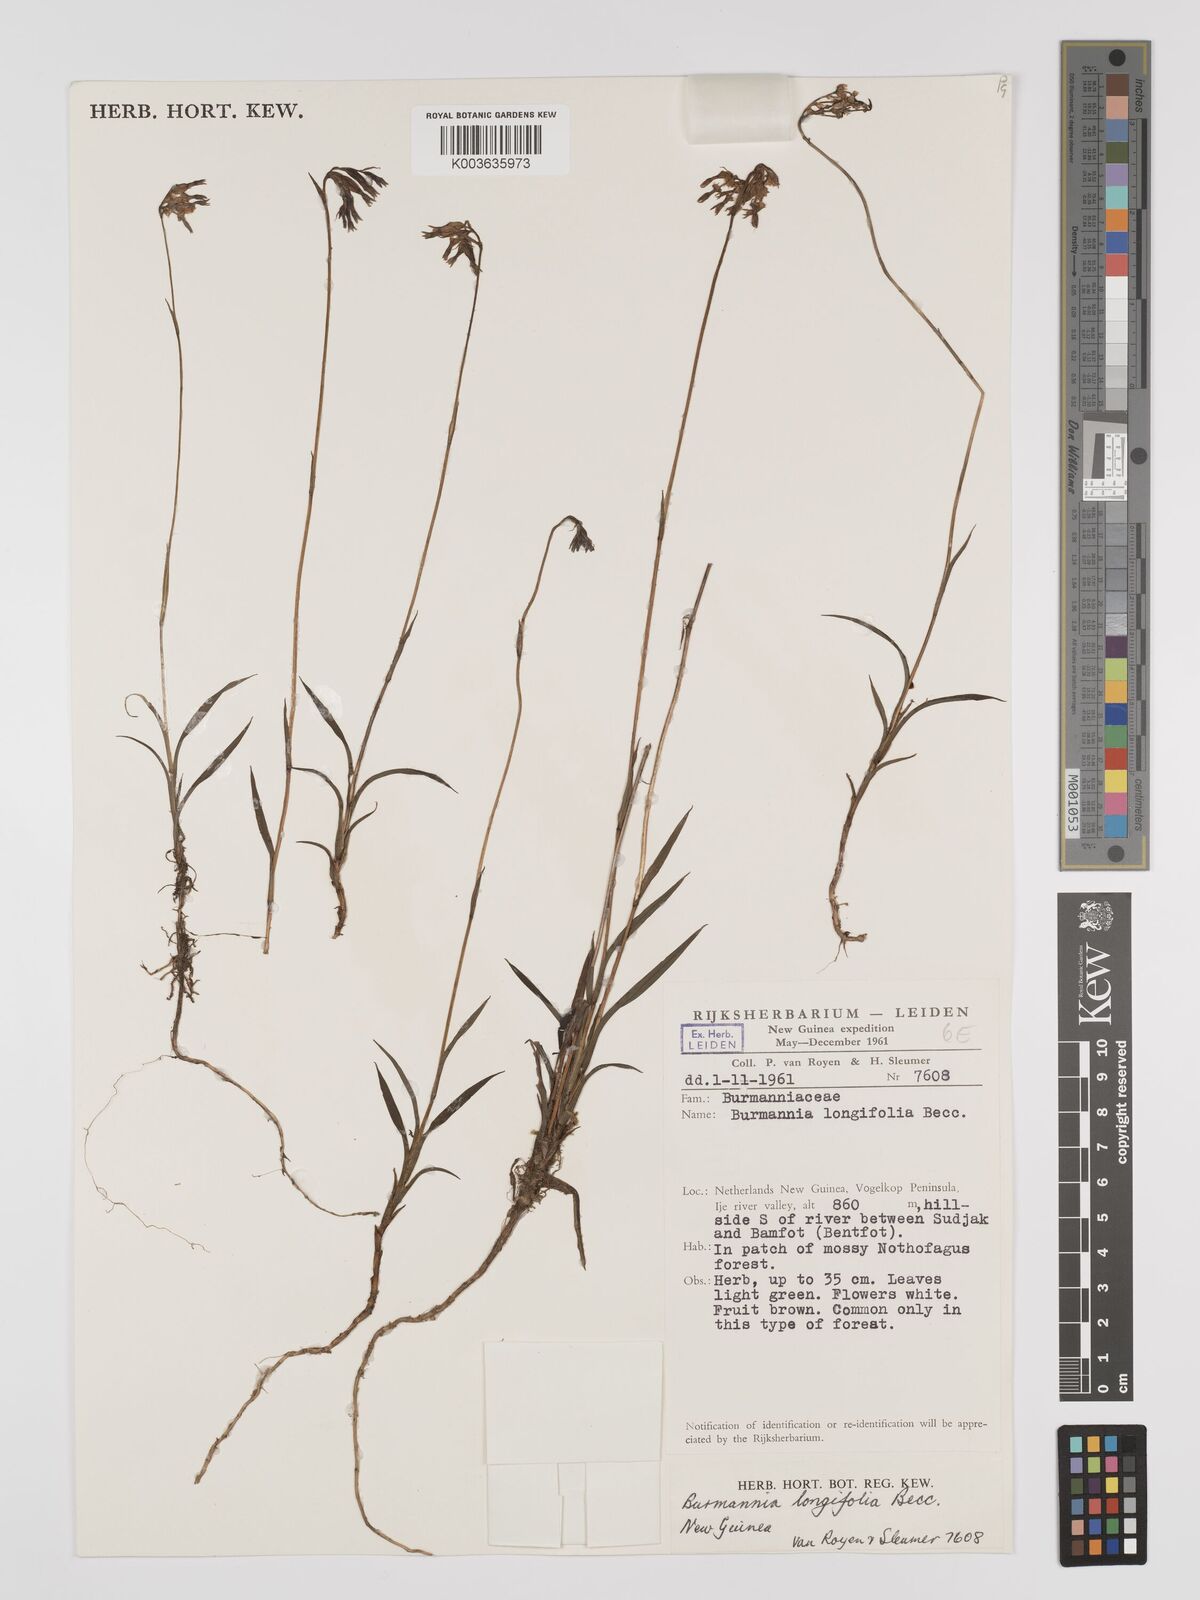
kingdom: Plantae
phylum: Tracheophyta
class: Liliopsida
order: Dioscoreales
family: Burmanniaceae
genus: Burmannia
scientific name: Burmannia longifolia
